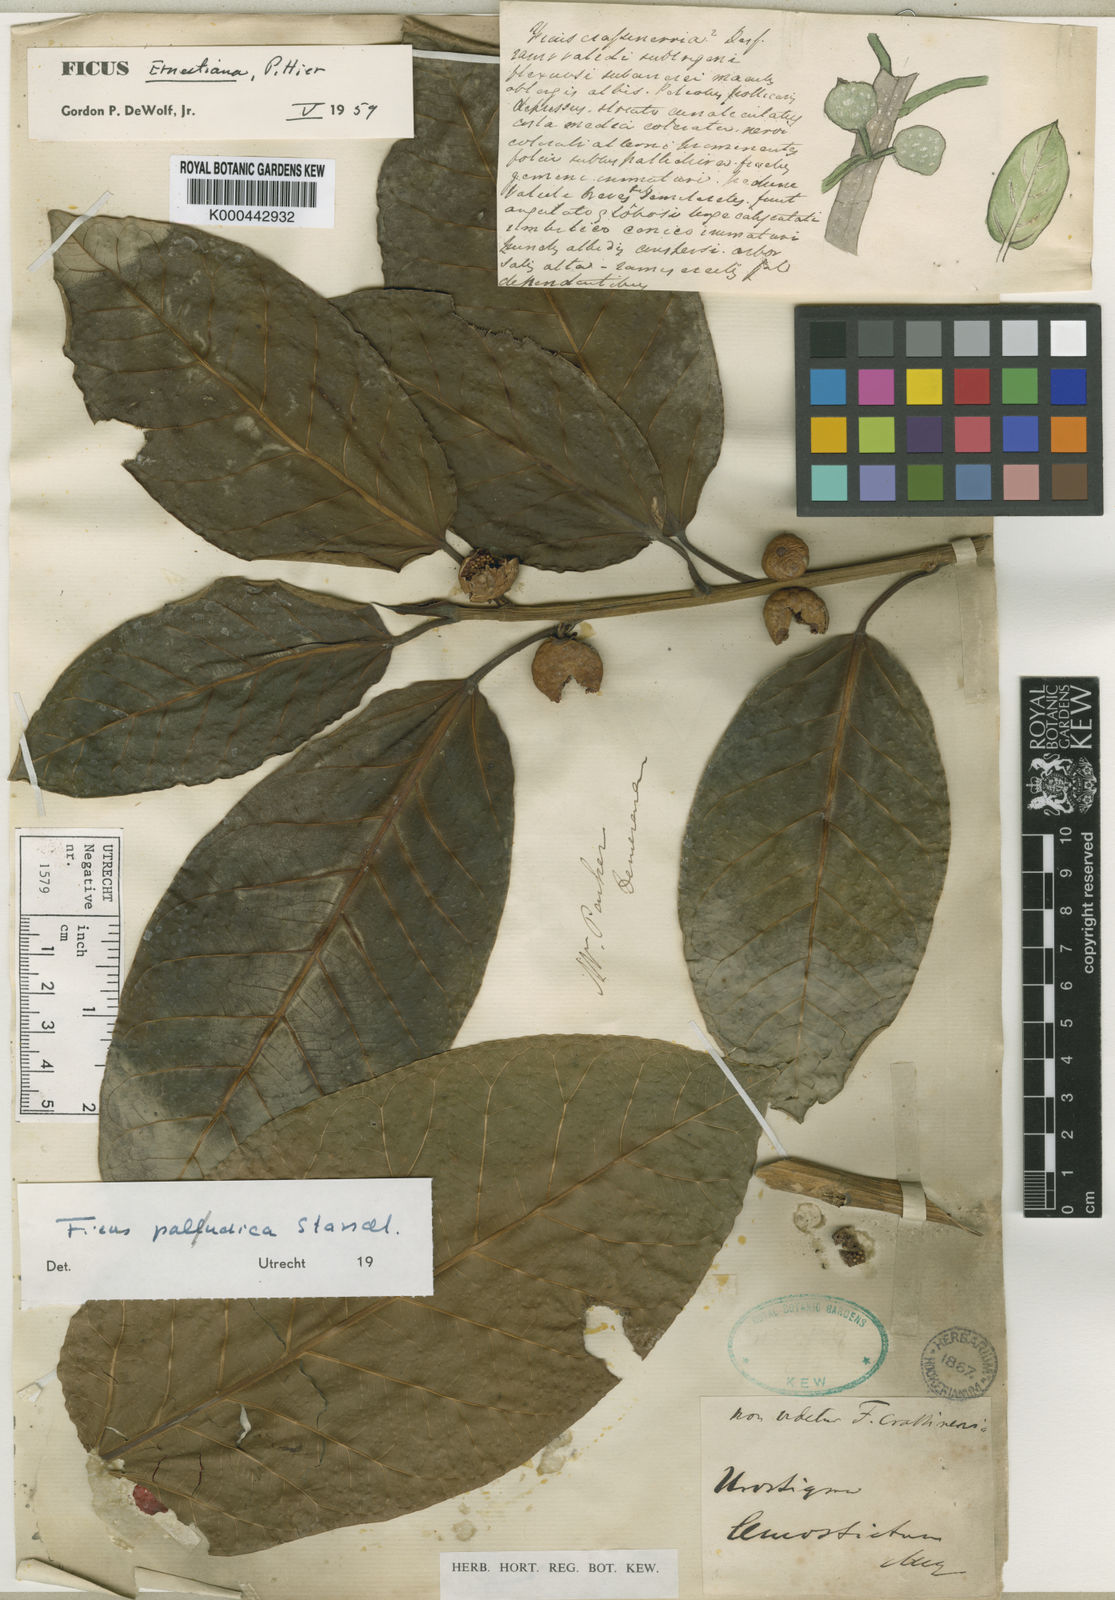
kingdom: Plantae
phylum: Tracheophyta
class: Magnoliopsida
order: Rosales
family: Moraceae
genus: Ficus
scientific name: Ficus paludica
